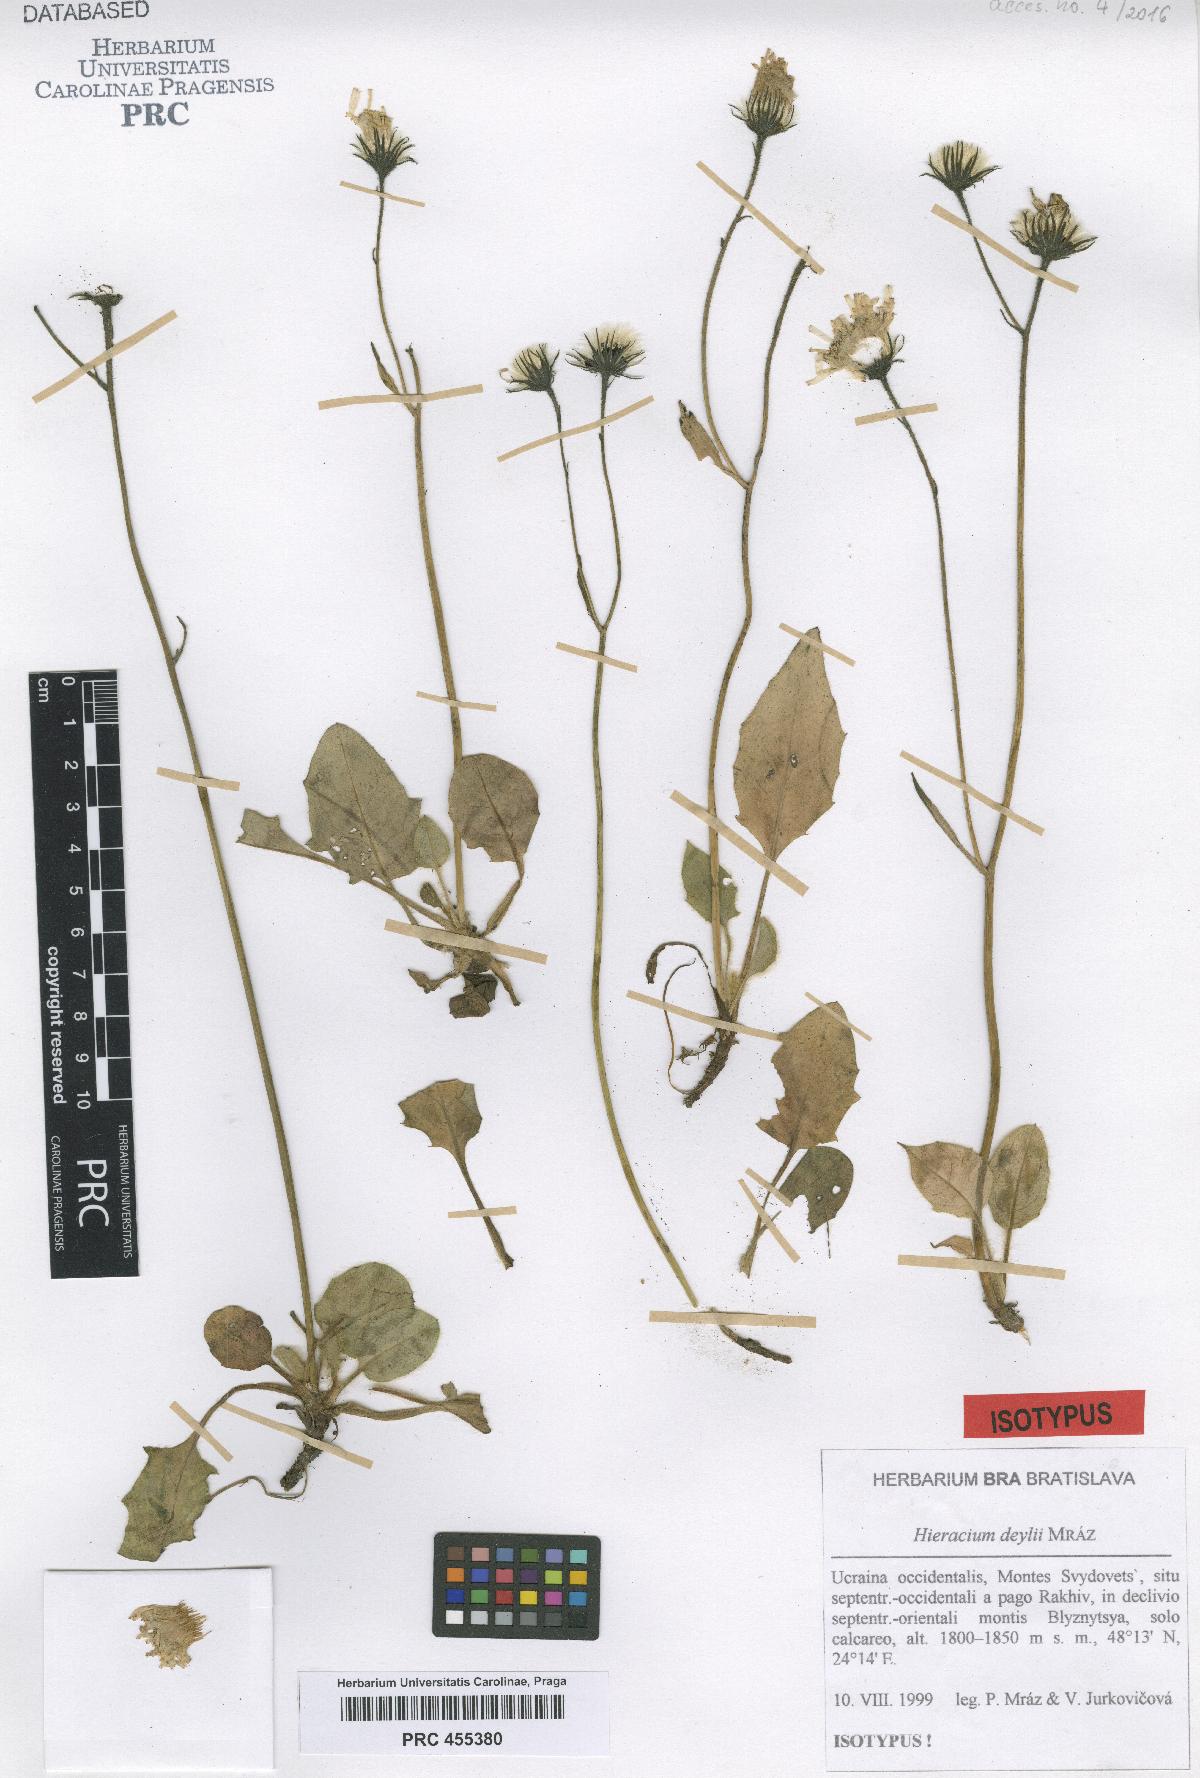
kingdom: Plantae
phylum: Tracheophyta
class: Magnoliopsida
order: Asterales
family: Asteraceae
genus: Hieracium
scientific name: Hieracium pietroszense
